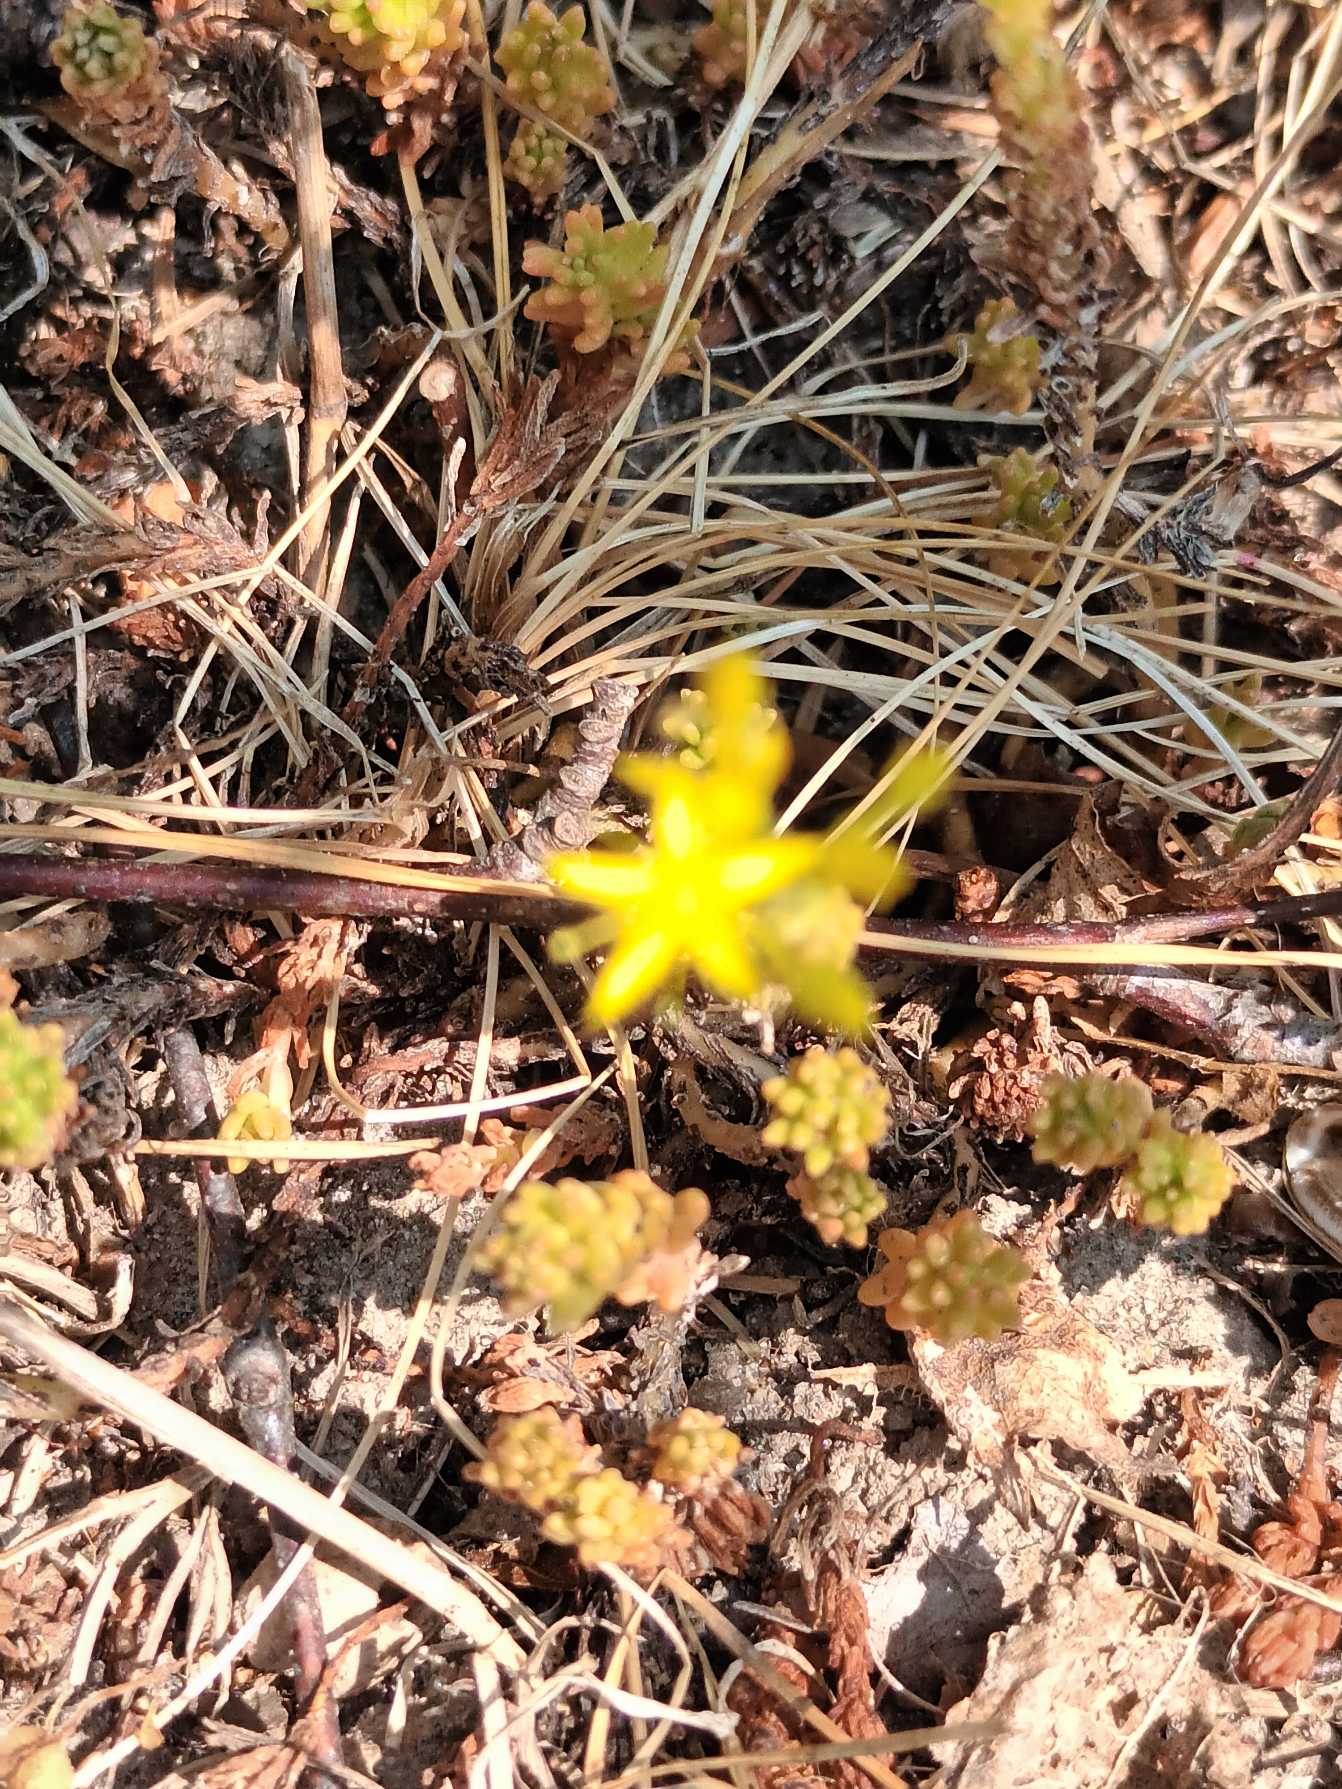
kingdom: Plantae
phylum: Tracheophyta
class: Magnoliopsida
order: Saxifragales
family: Crassulaceae
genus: Sedum
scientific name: Sedum sexangulare
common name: Seksradet stenurt
